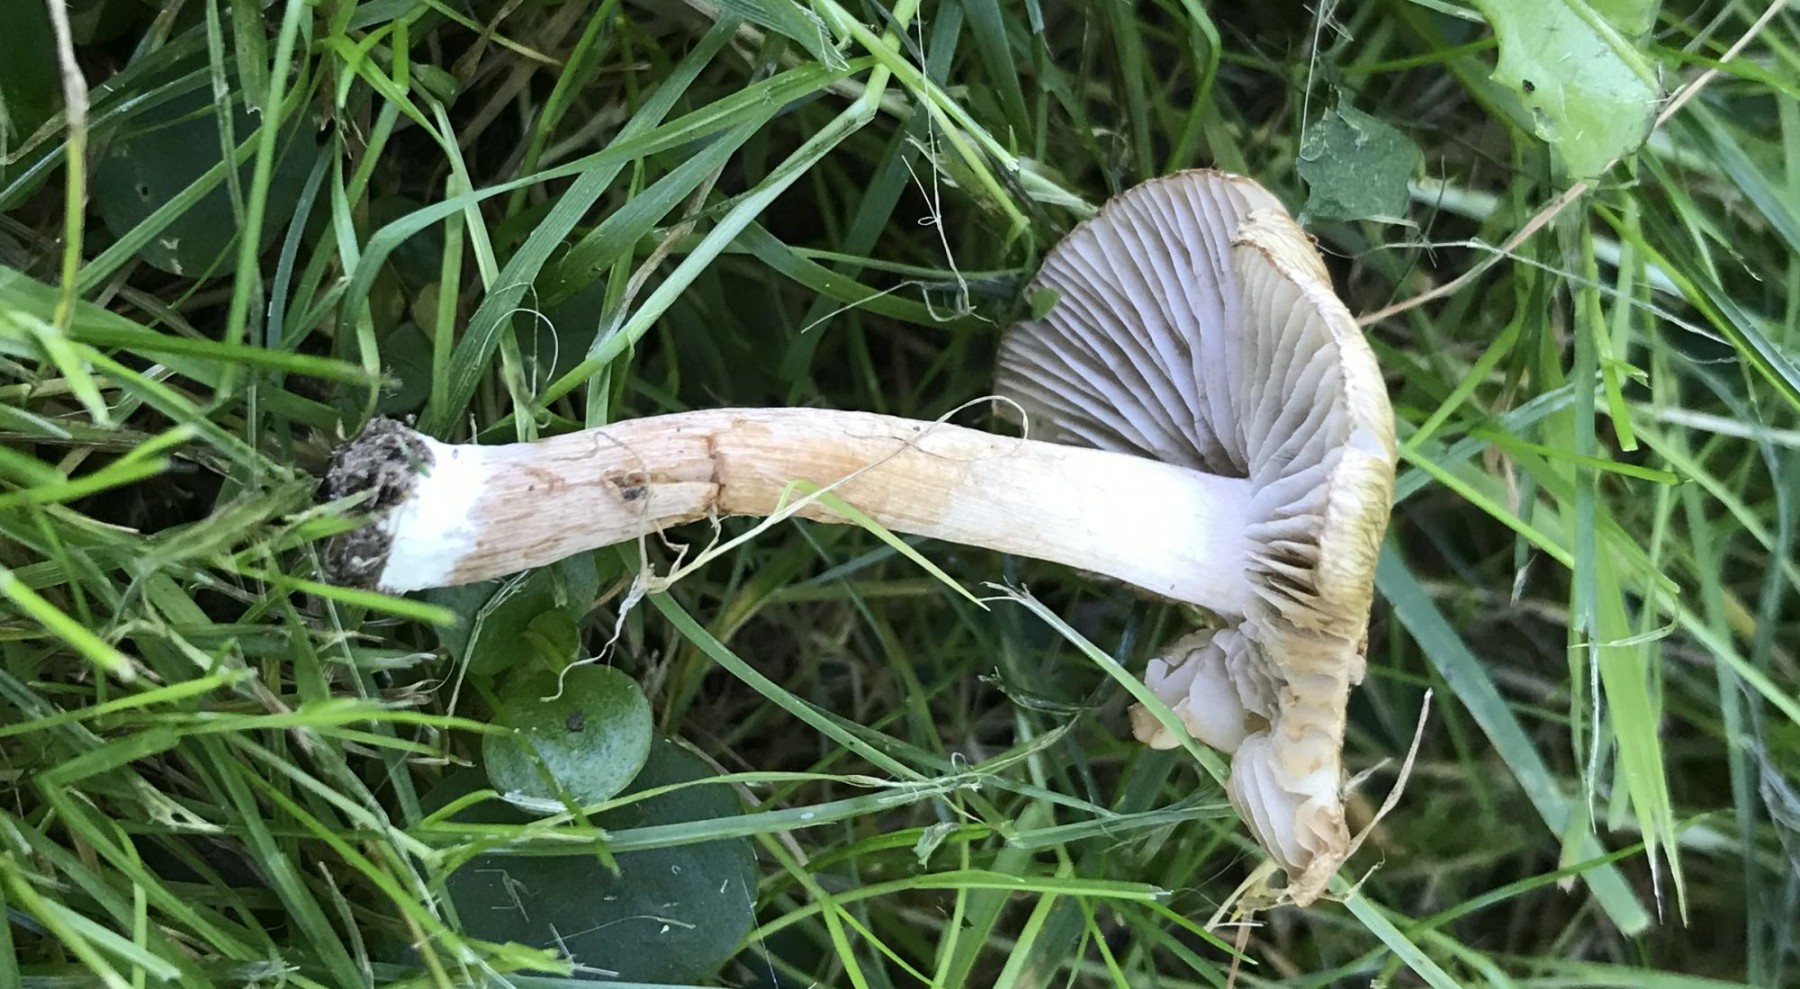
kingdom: Fungi
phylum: Basidiomycota
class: Agaricomycetes
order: Agaricales
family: Inocybaceae
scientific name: Inocybaceae
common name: trævlhatfamilien
